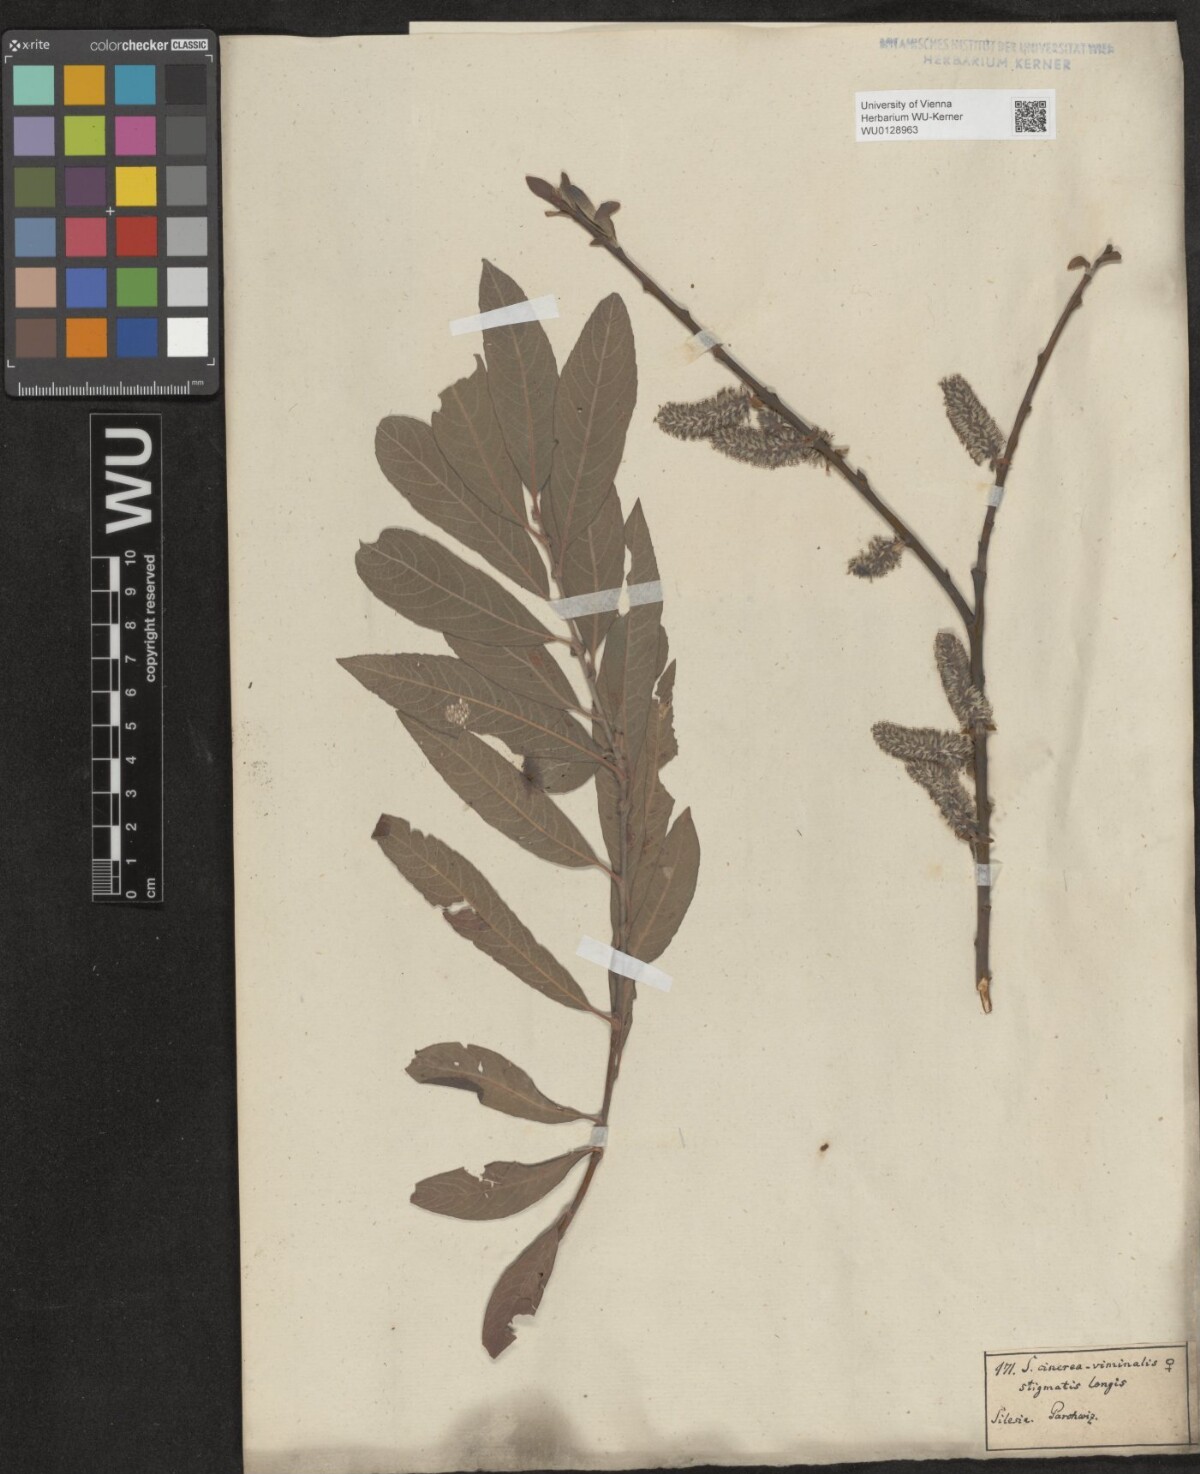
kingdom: Plantae
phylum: Tracheophyta
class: Magnoliopsida
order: Malpighiales
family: Salicaceae
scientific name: Salicaceae
